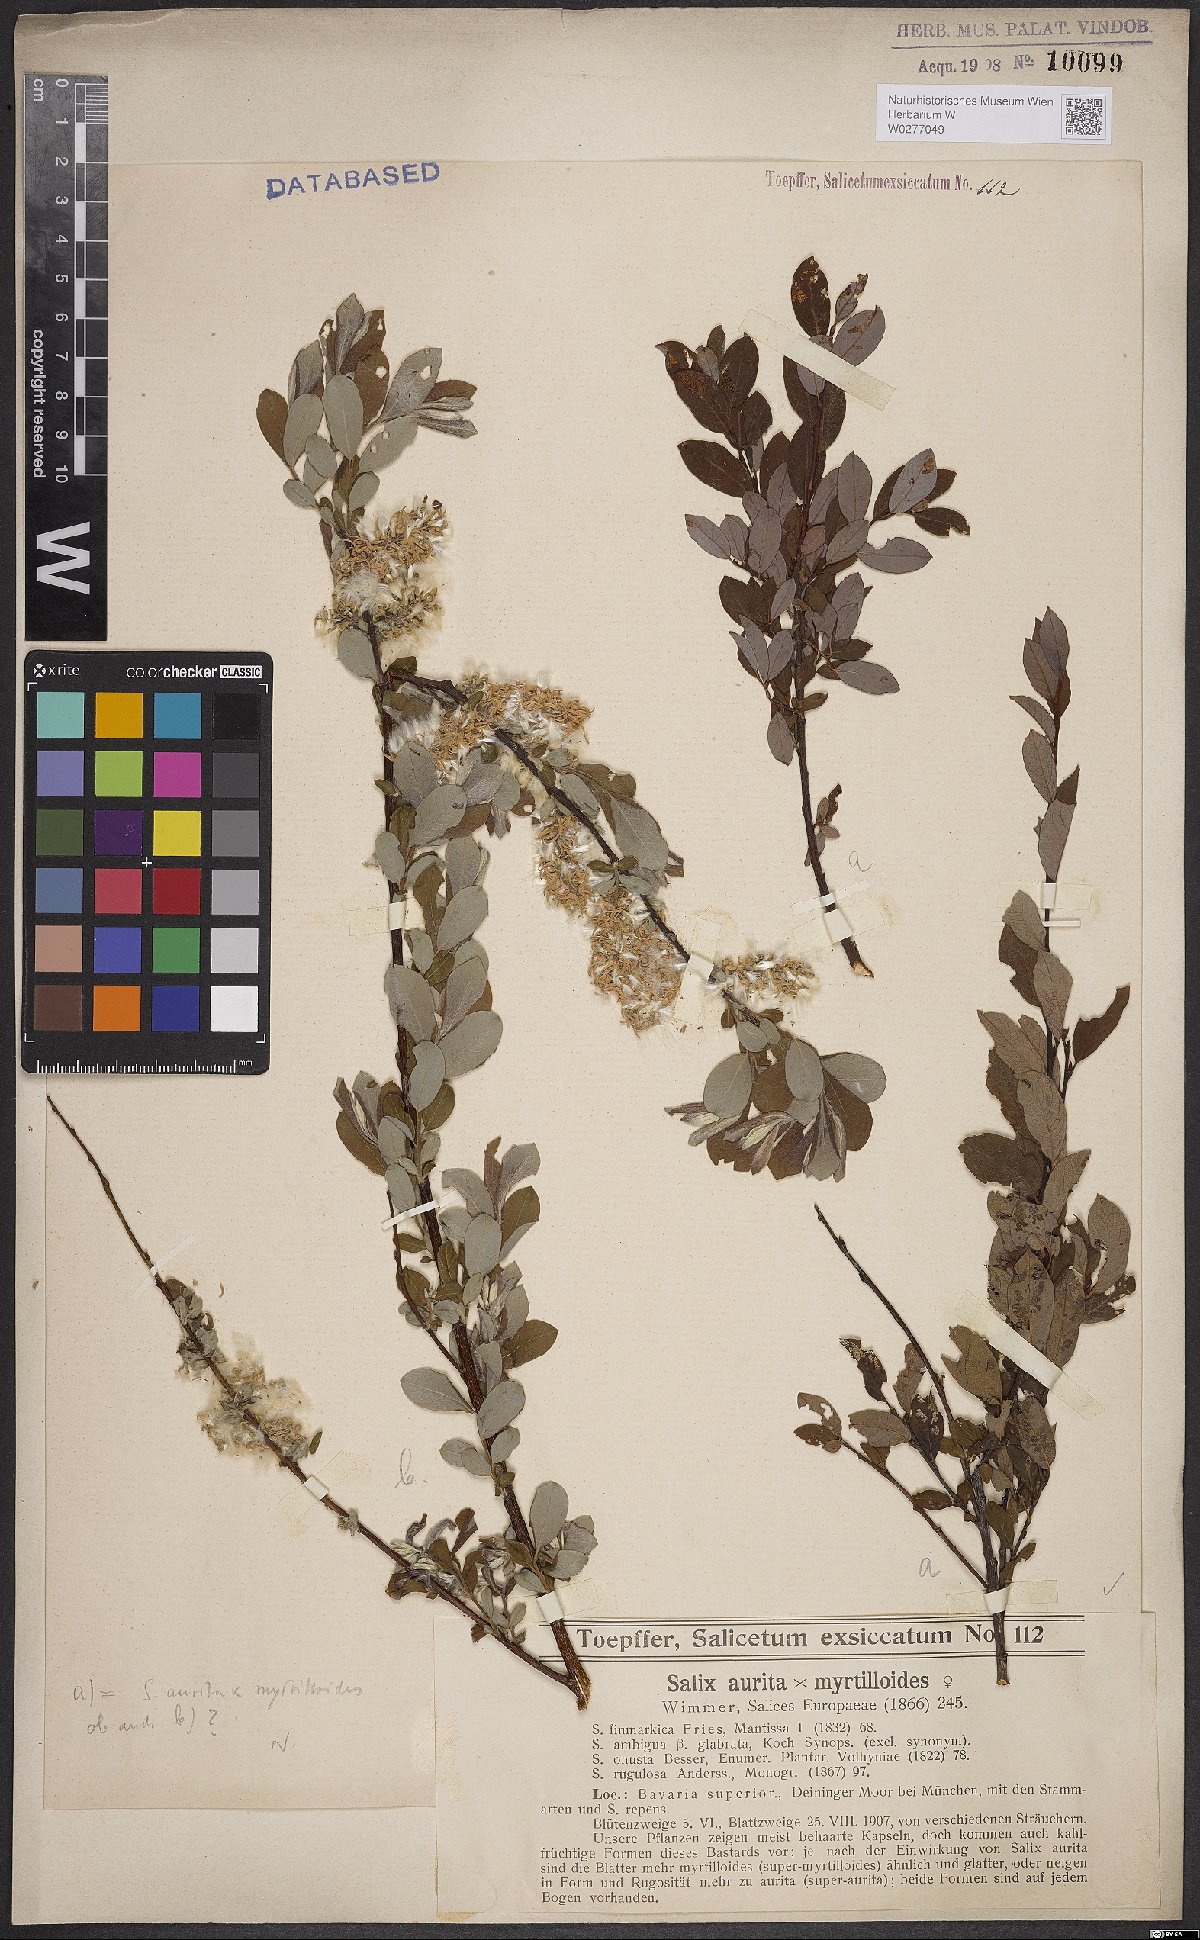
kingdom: Plantae
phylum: Tracheophyta
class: Magnoliopsida
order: Malpighiales
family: Salicaceae
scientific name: Salicaceae
